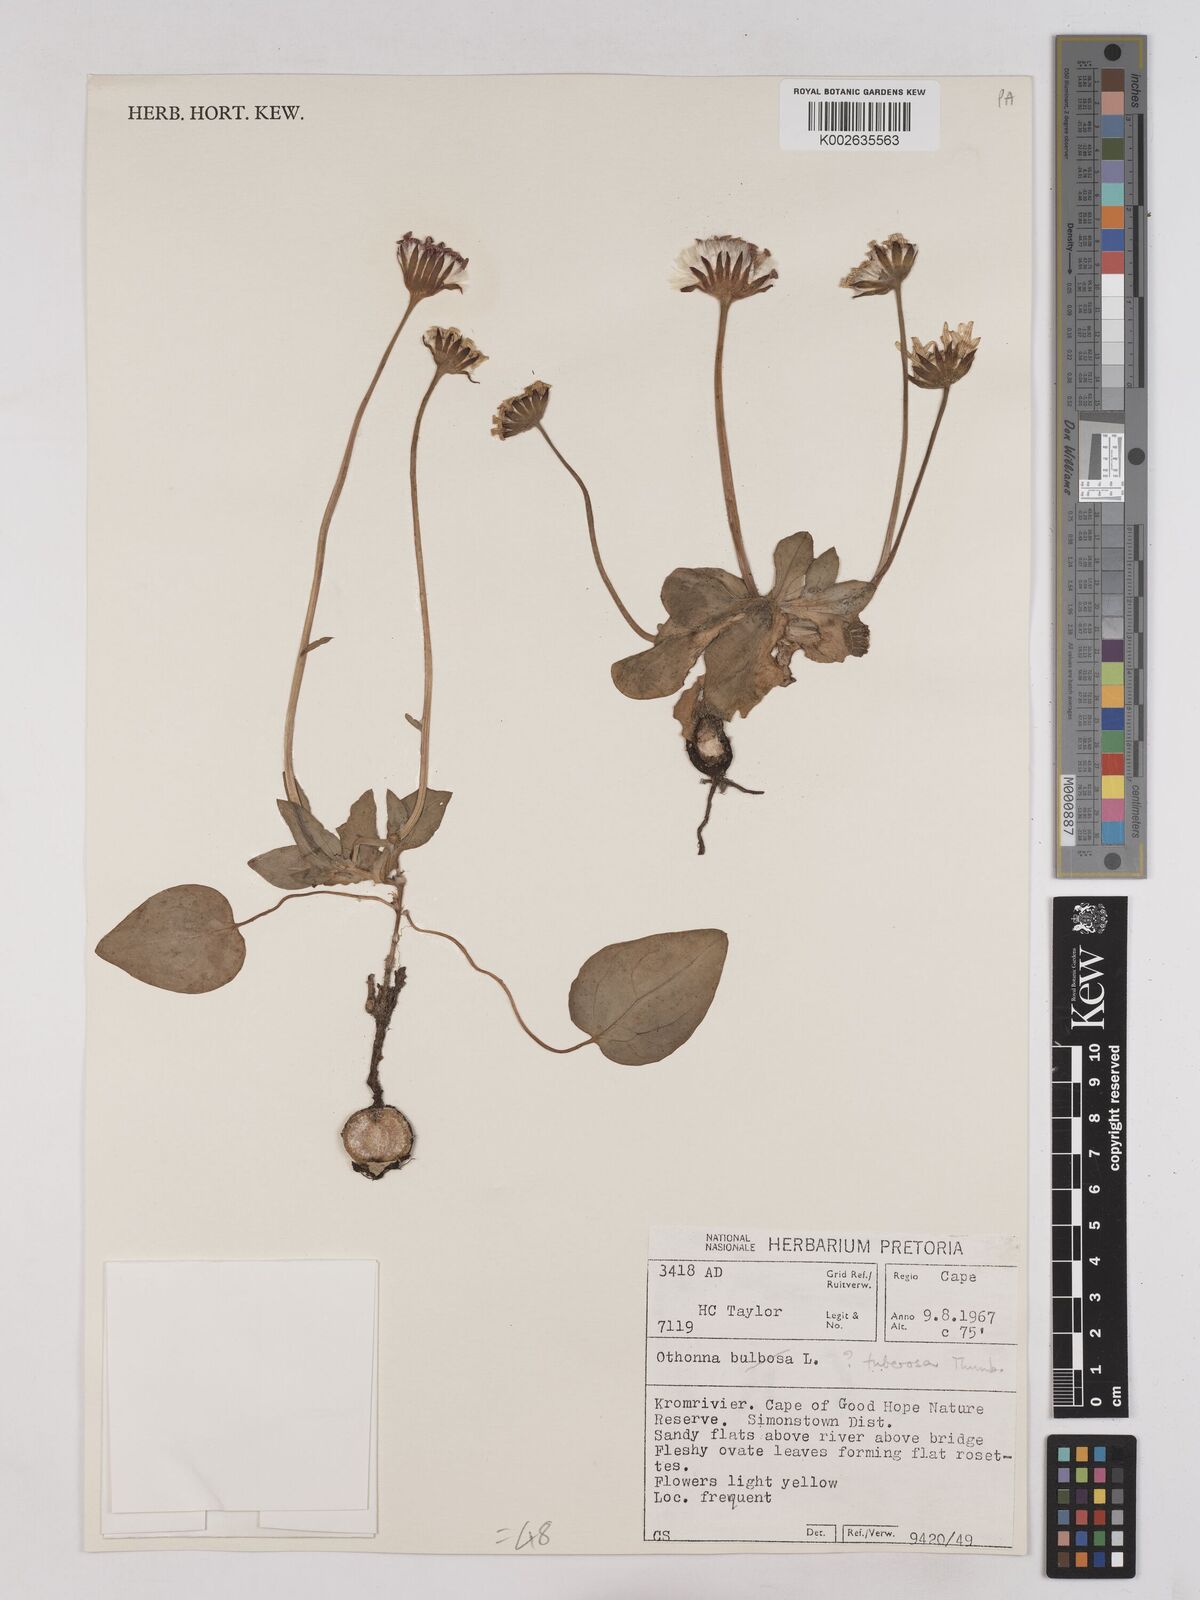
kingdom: Plantae
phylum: Tracheophyta
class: Magnoliopsida
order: Asterales
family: Asteraceae
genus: Othonna
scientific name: Othonna bulbosa
